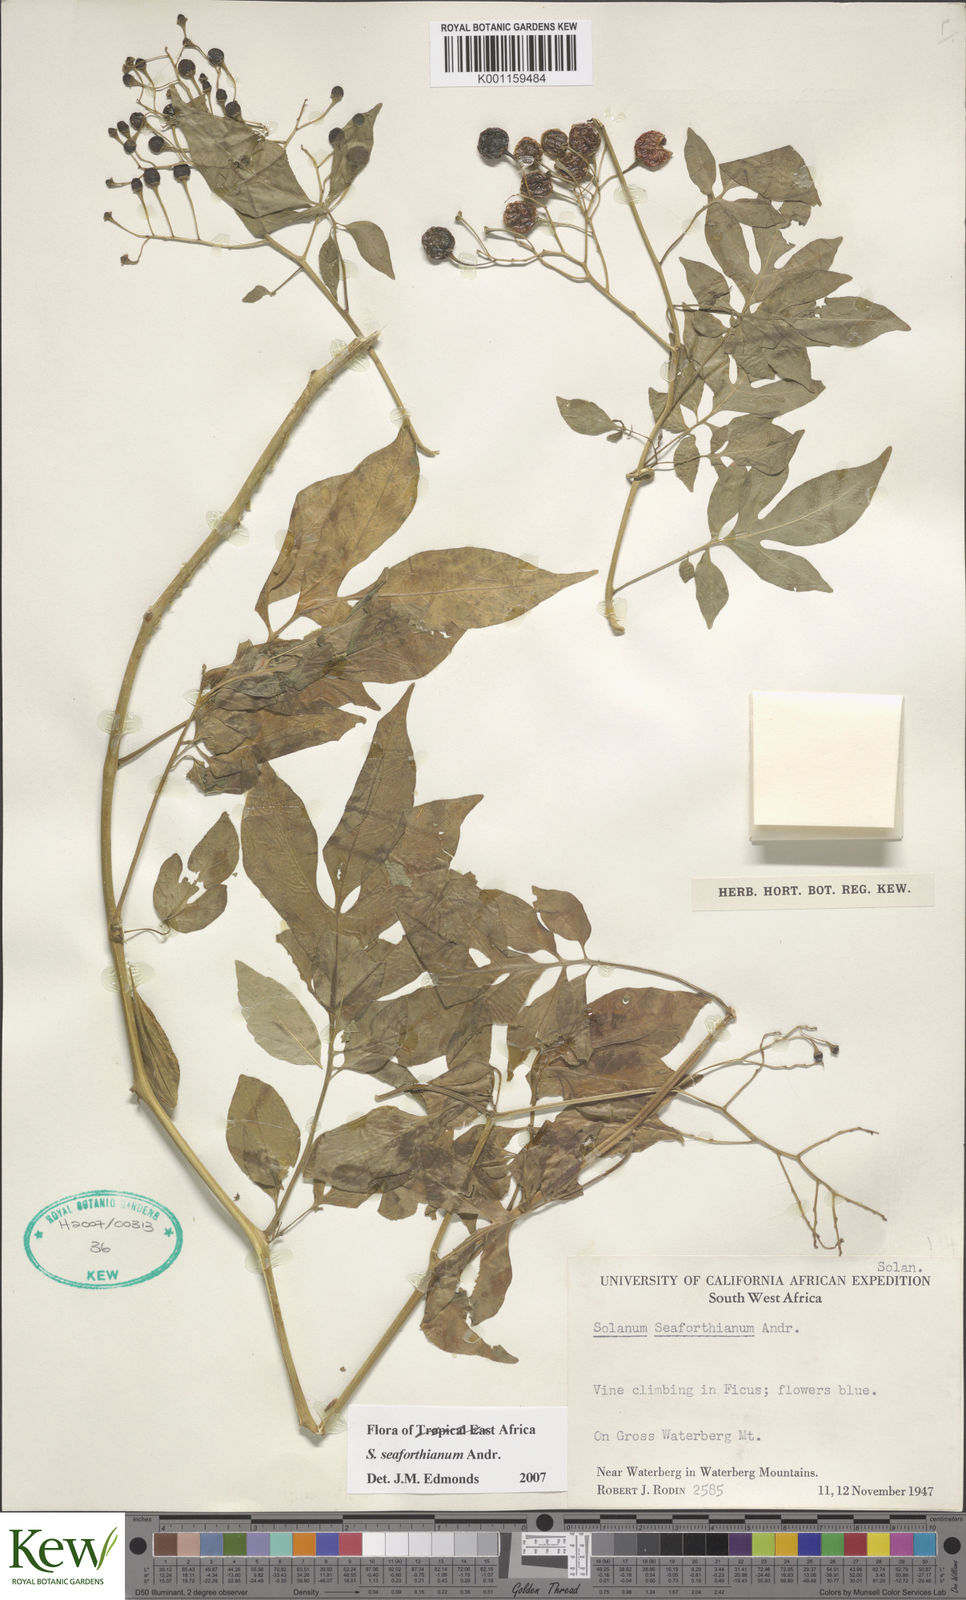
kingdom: Plantae
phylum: Tracheophyta
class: Magnoliopsida
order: Solanales
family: Solanaceae
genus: Solanum
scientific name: Solanum seaforthianum
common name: Brazilian nightshade
